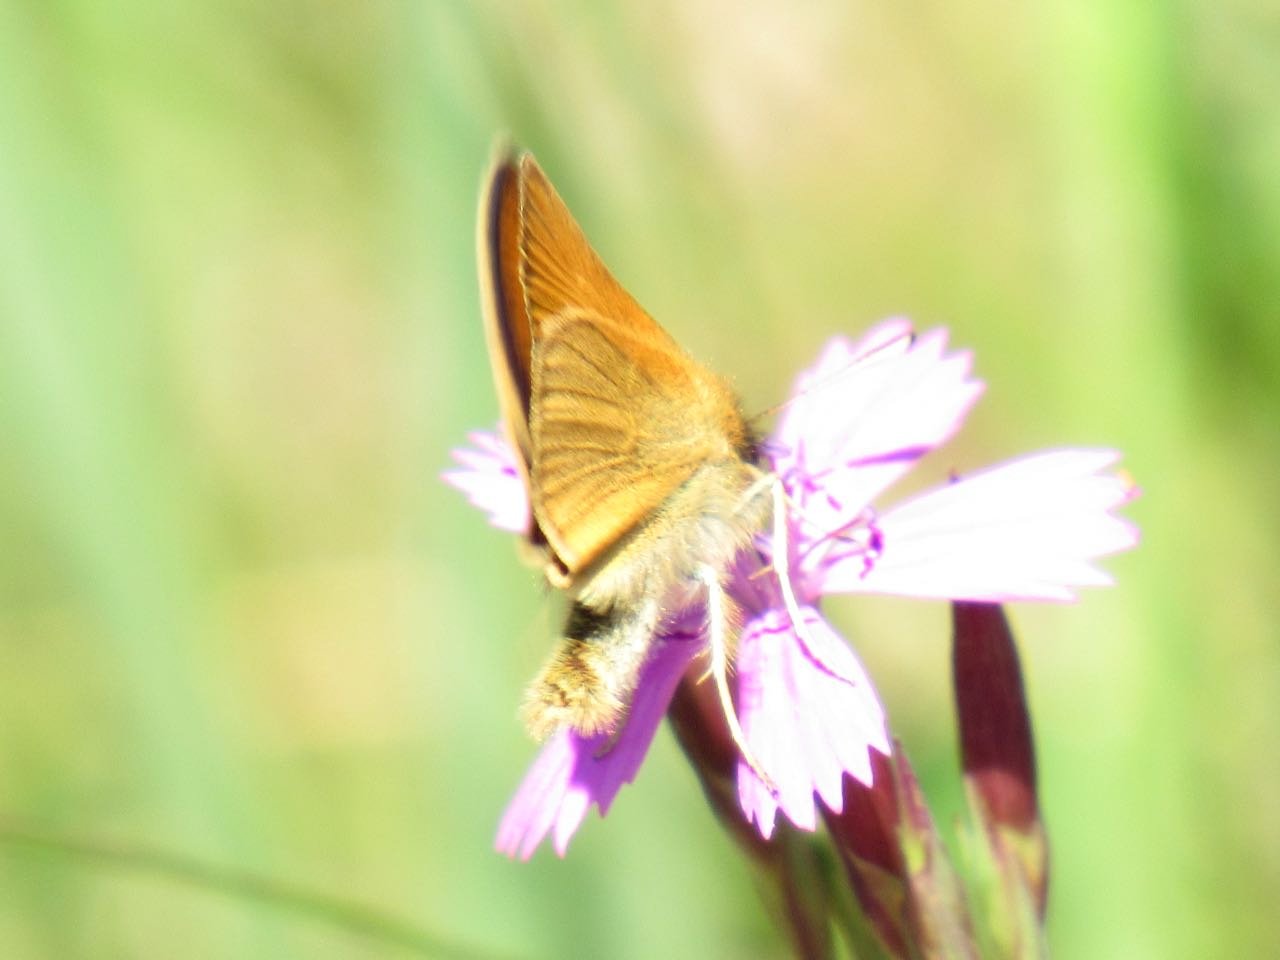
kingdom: Animalia
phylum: Arthropoda
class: Insecta
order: Lepidoptera
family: Hesperiidae
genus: Thymelicus
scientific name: Thymelicus lineola
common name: European Skipper
